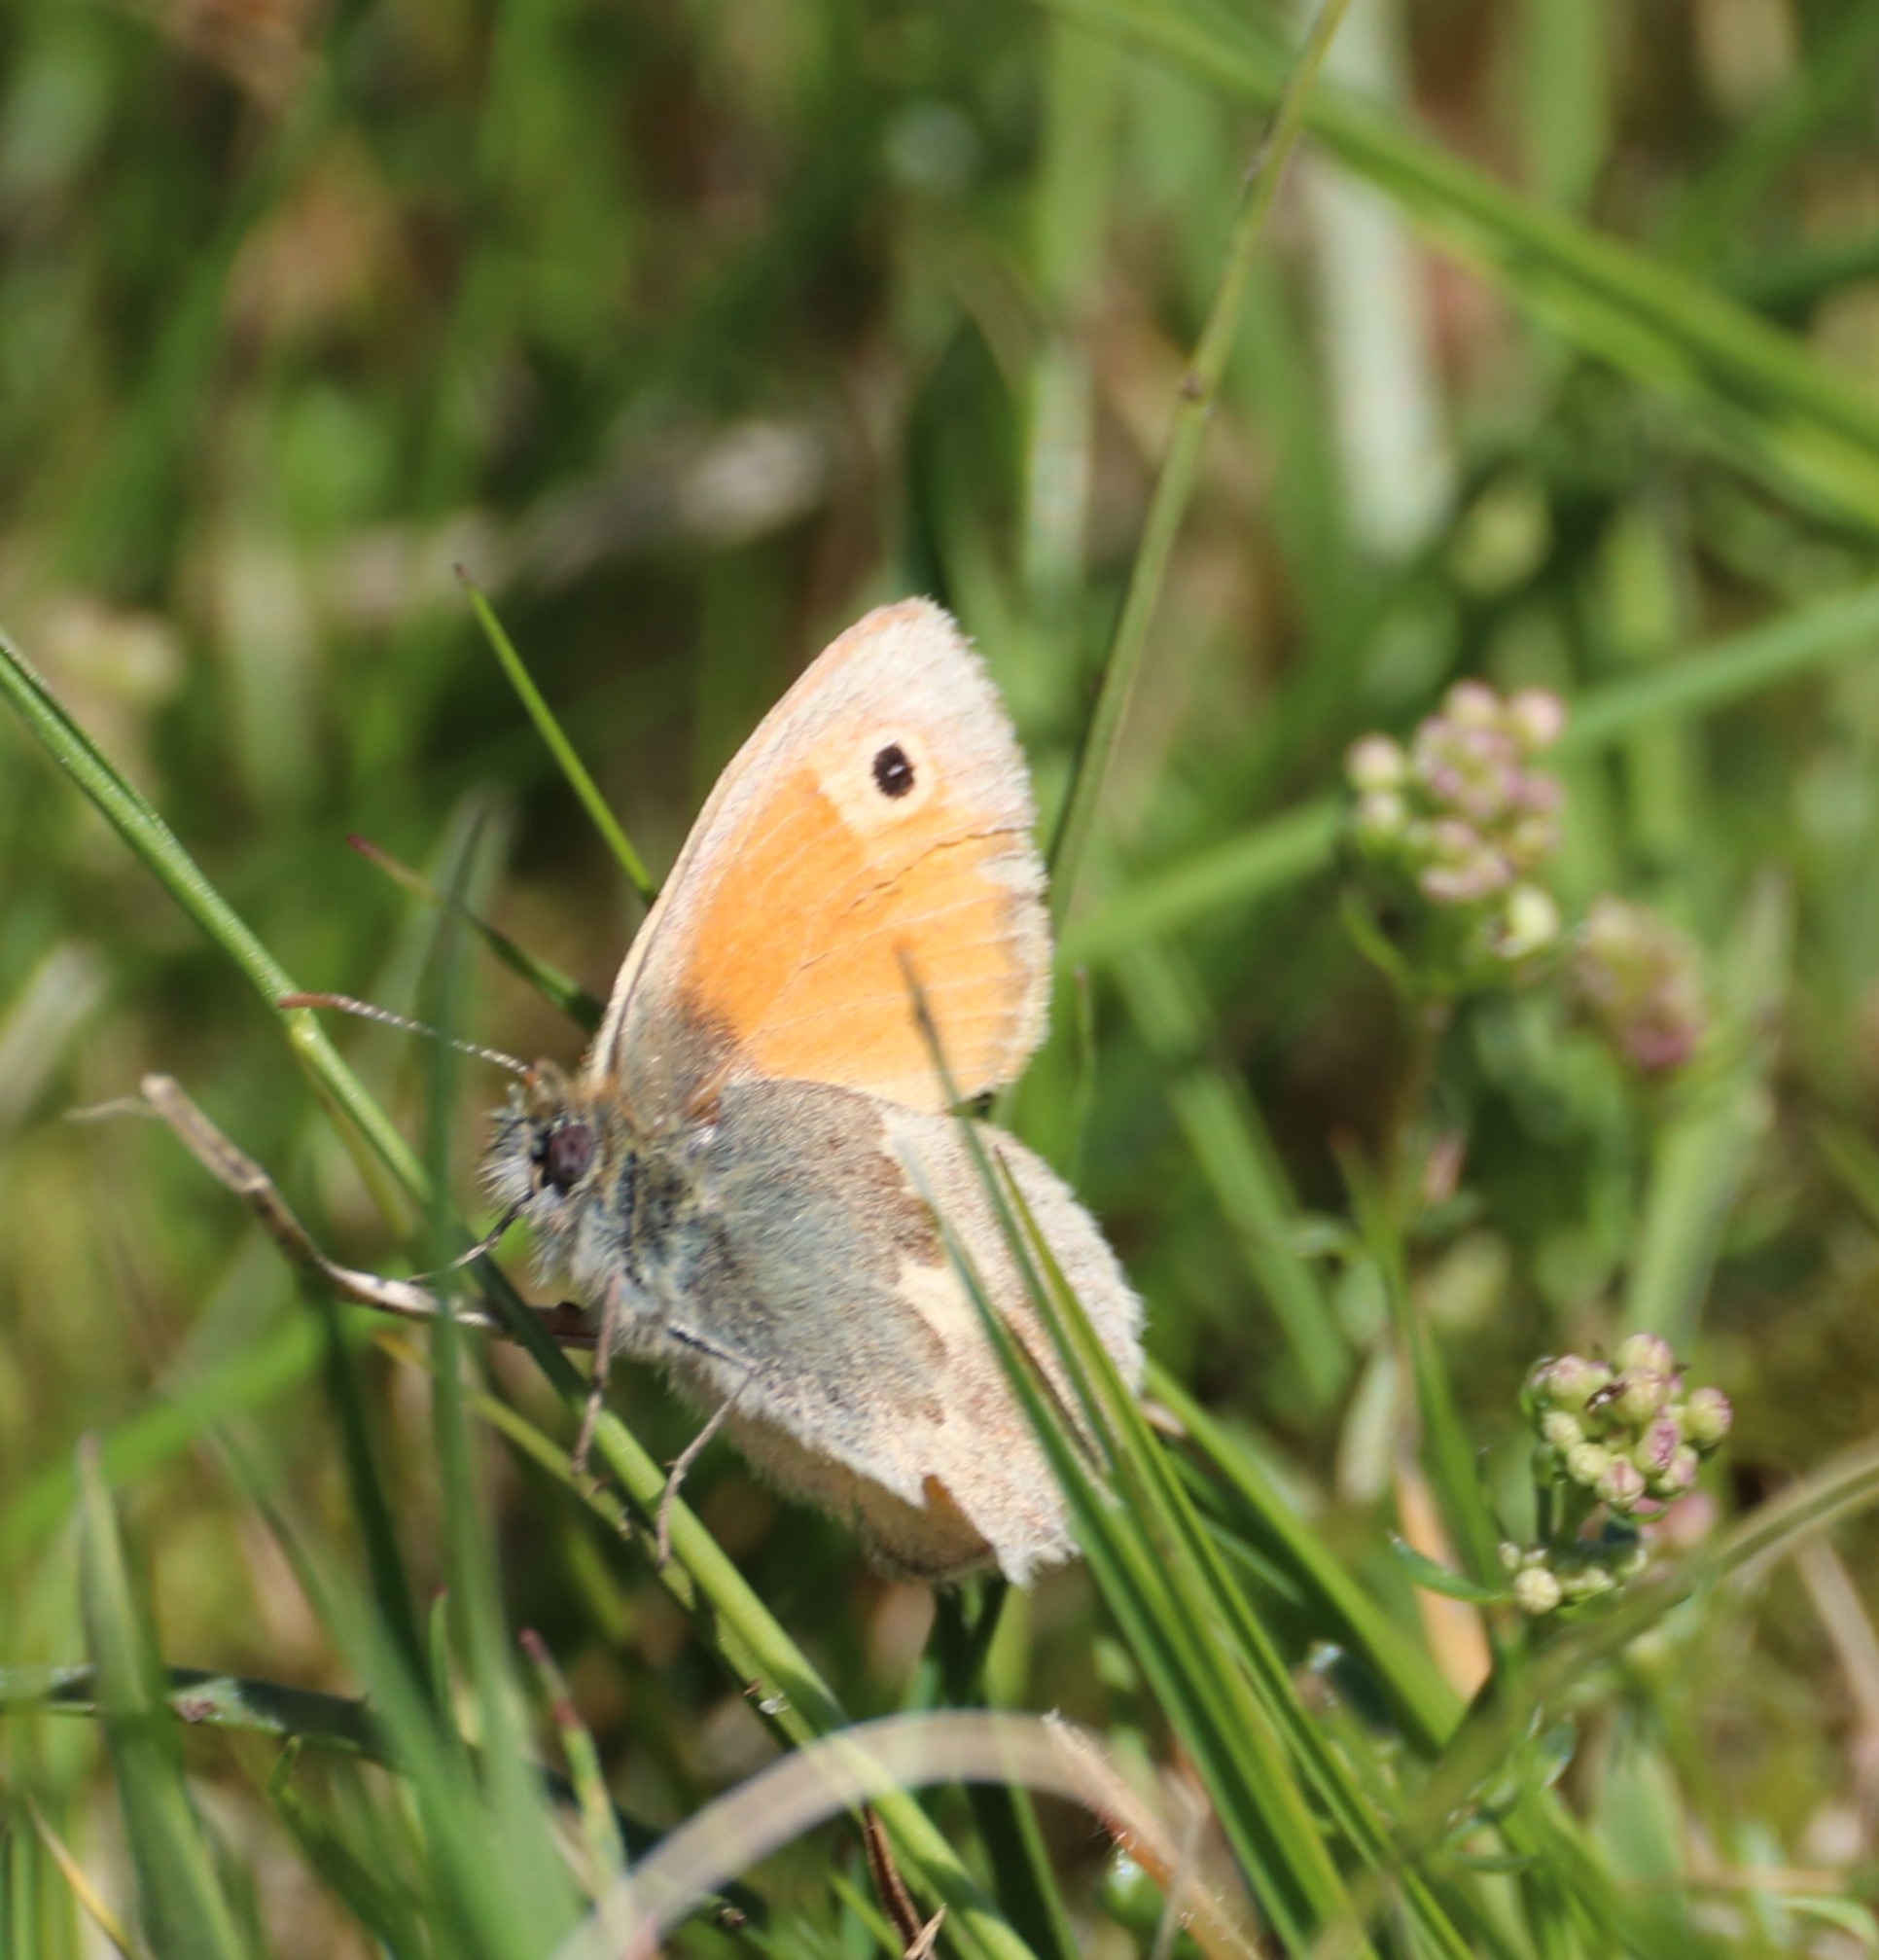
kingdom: Animalia
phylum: Arthropoda
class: Insecta
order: Lepidoptera
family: Nymphalidae
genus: Coenonympha
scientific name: Coenonympha pamphilus
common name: Okkergul randøje
